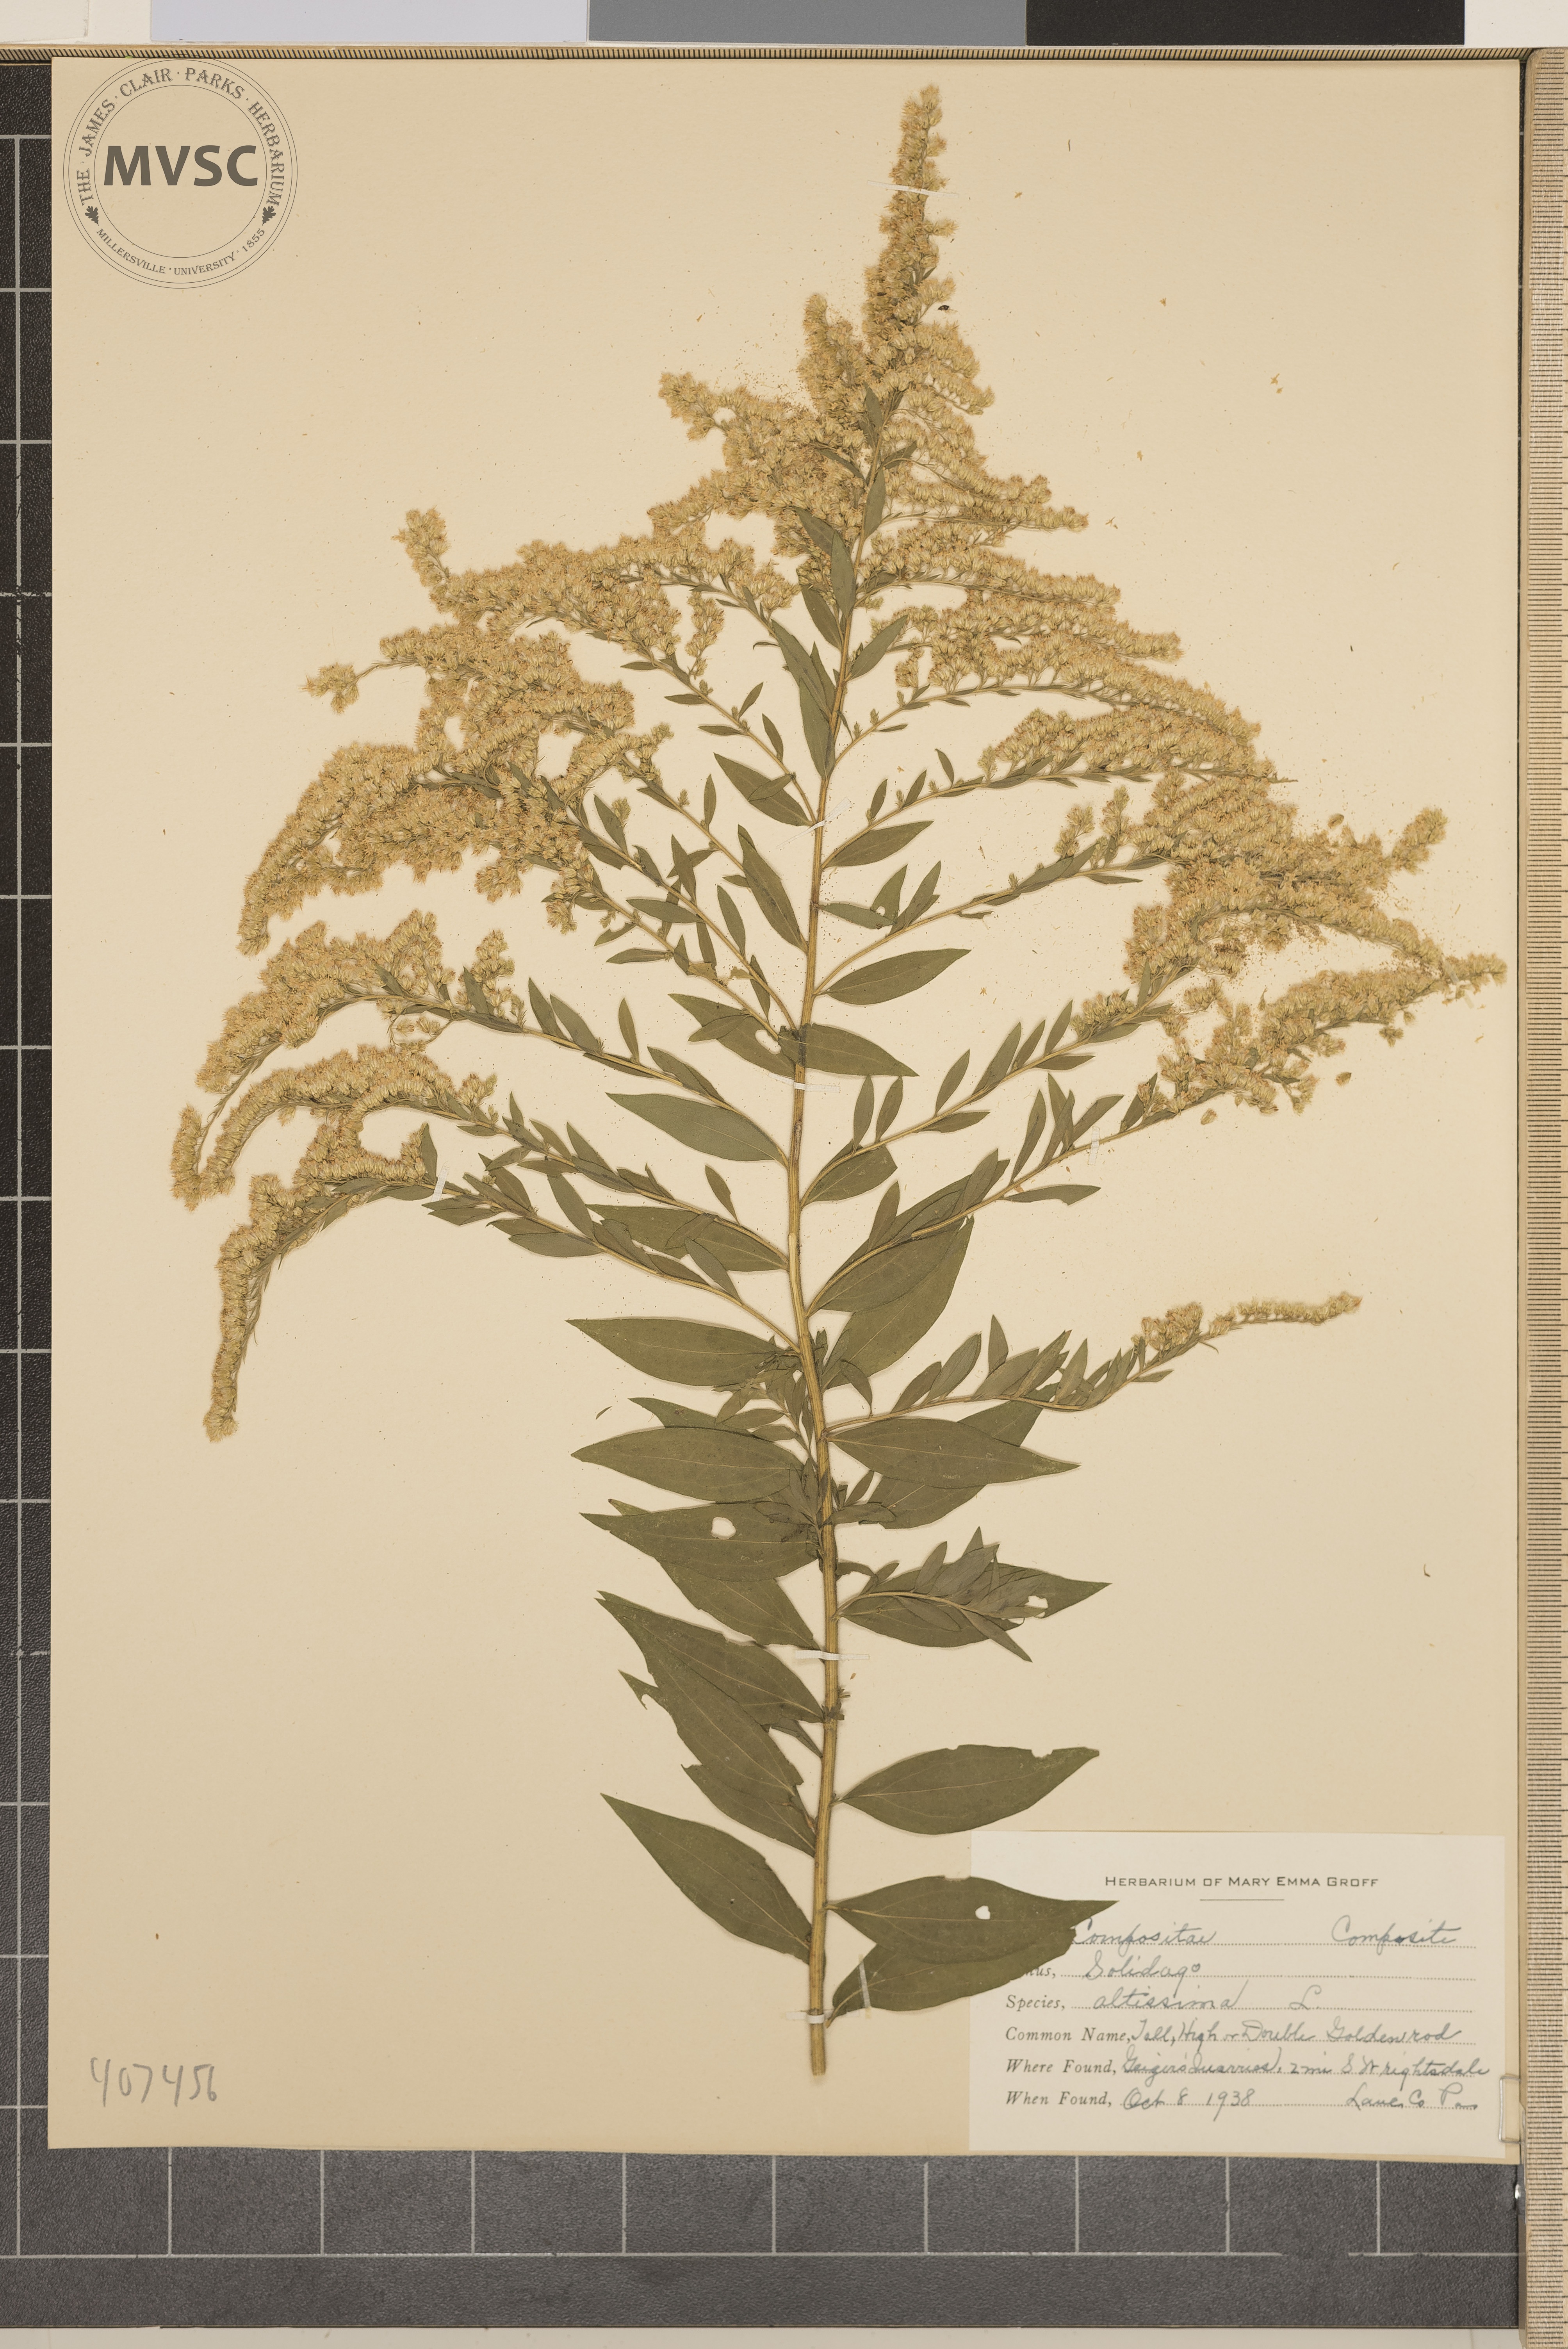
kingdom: Plantae
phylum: Tracheophyta
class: Magnoliopsida
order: Asterales
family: Asteraceae
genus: Solidago
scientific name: Solidago altissima
